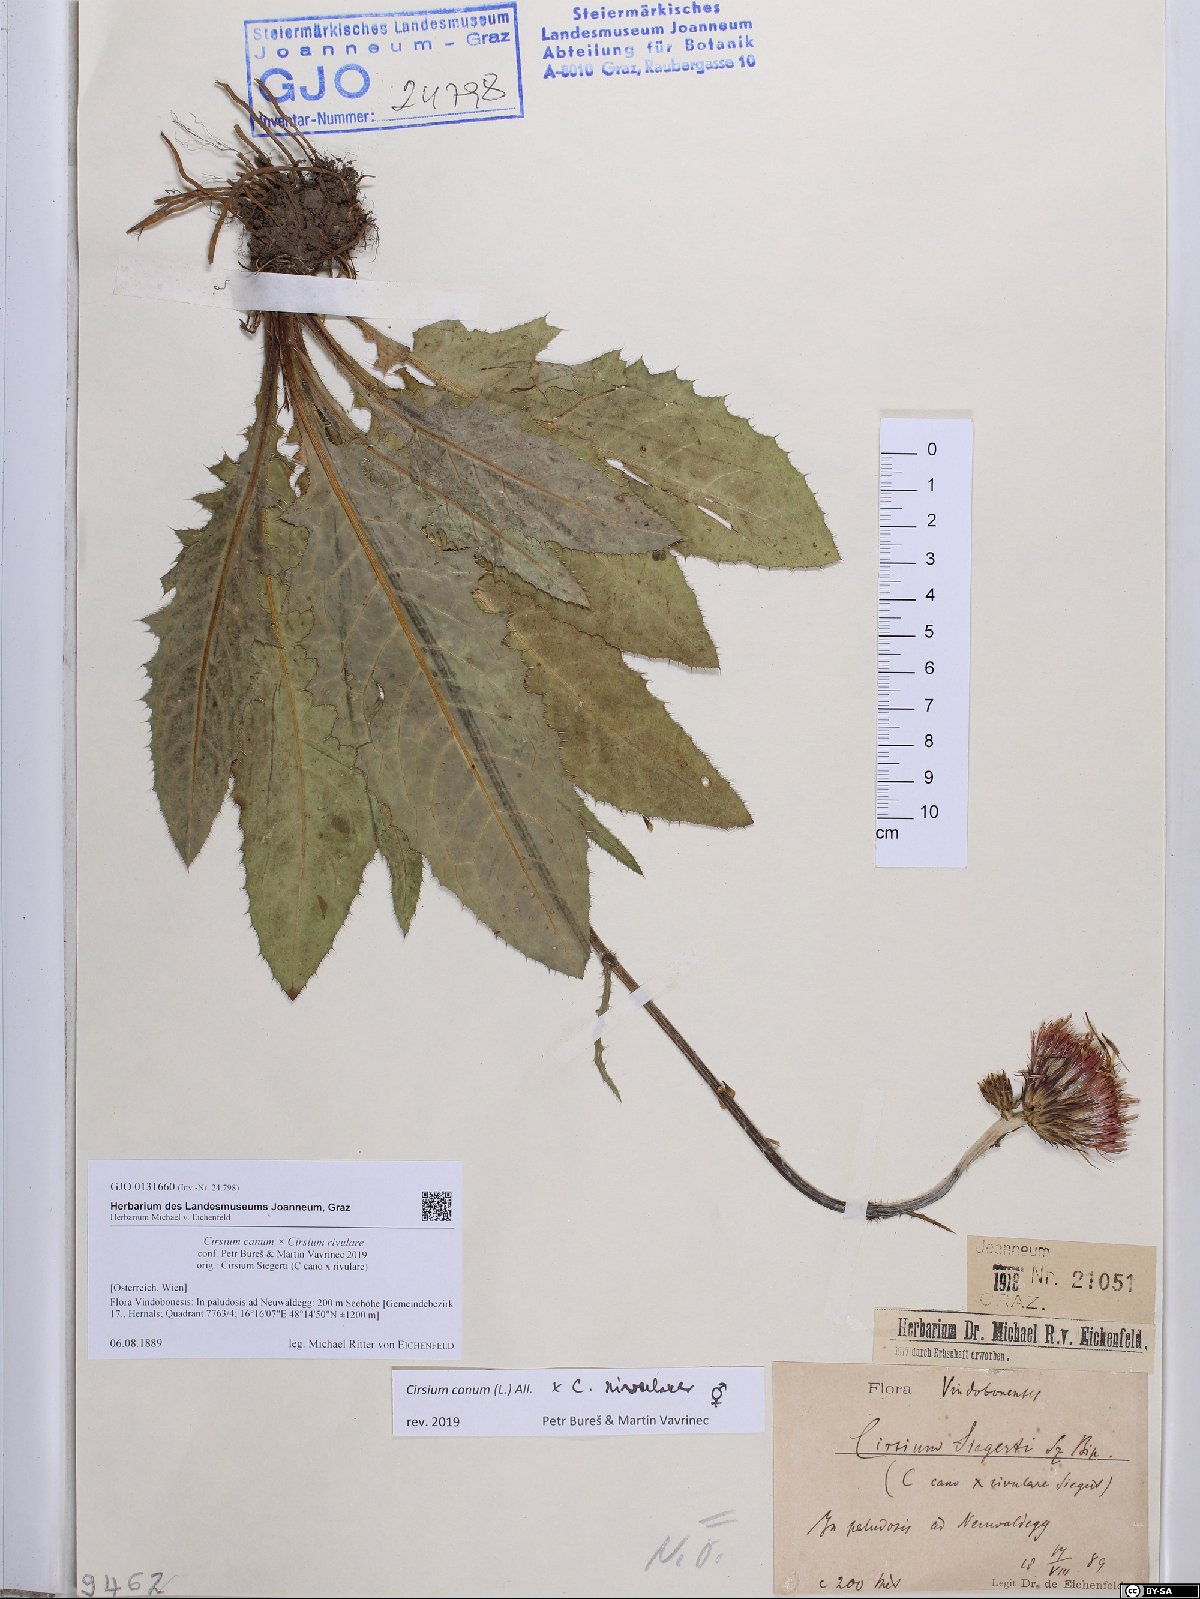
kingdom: Plantae
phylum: Tracheophyta
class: Magnoliopsida
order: Asterales
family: Asteraceae
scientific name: Asteraceae
